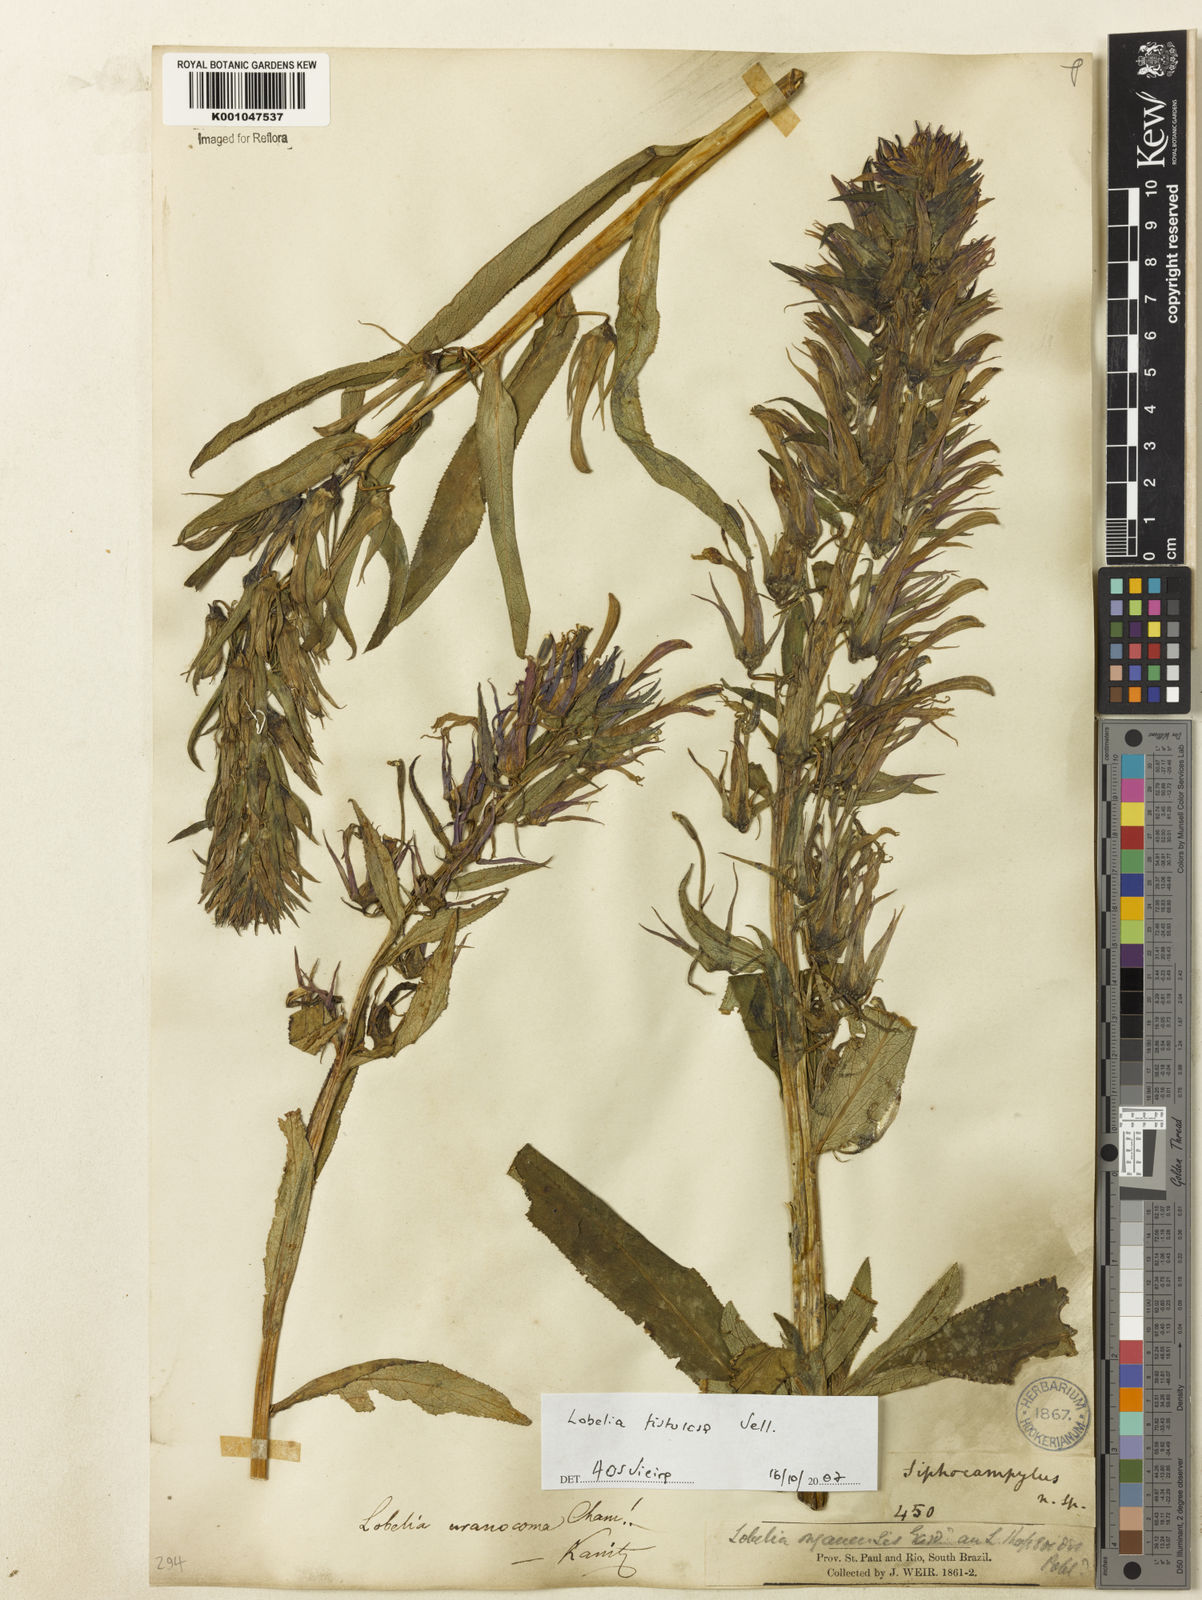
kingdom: Plantae
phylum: Tracheophyta
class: Magnoliopsida
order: Asterales
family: Campanulaceae
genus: Lobelia
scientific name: Lobelia fistulosa
